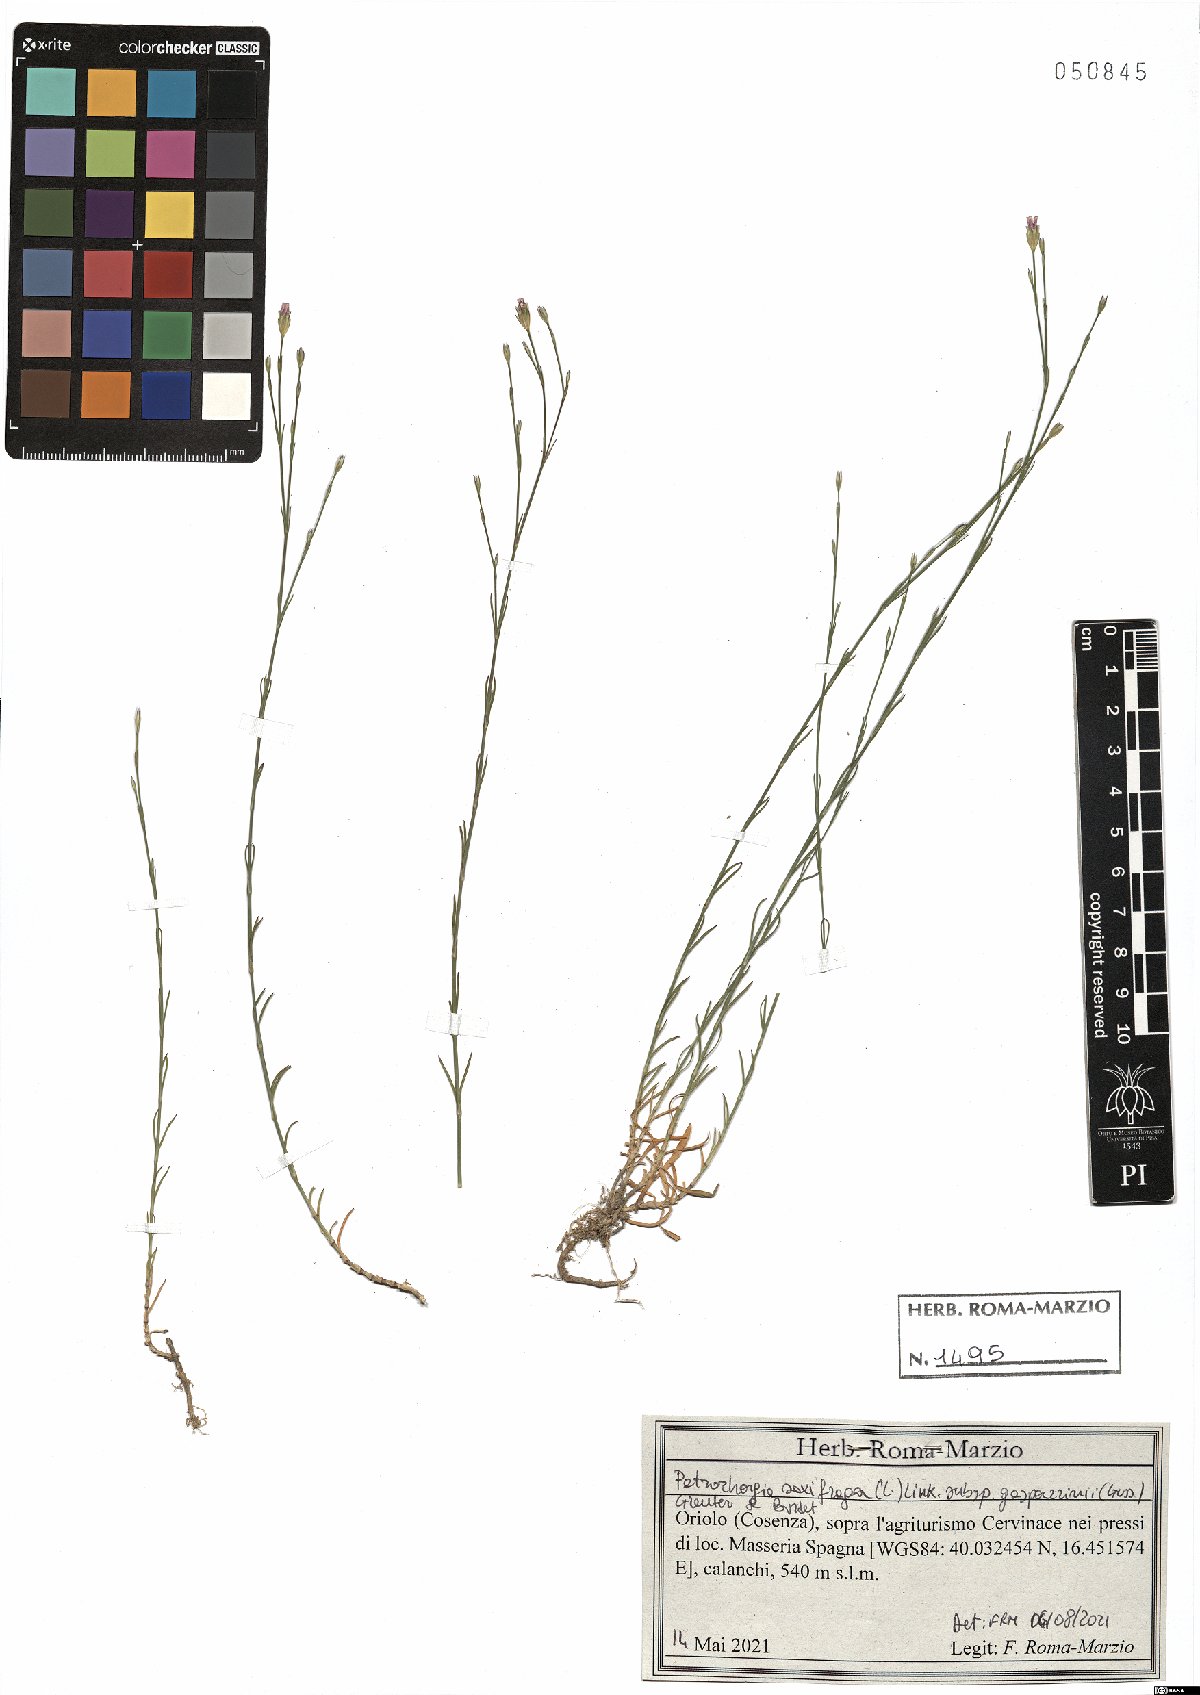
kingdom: Plantae
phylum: Tracheophyta
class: Magnoliopsida
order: Caryophyllales
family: Caryophyllaceae
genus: Petrorhagia
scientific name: Petrorhagia saxifraga
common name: Tunicflower
